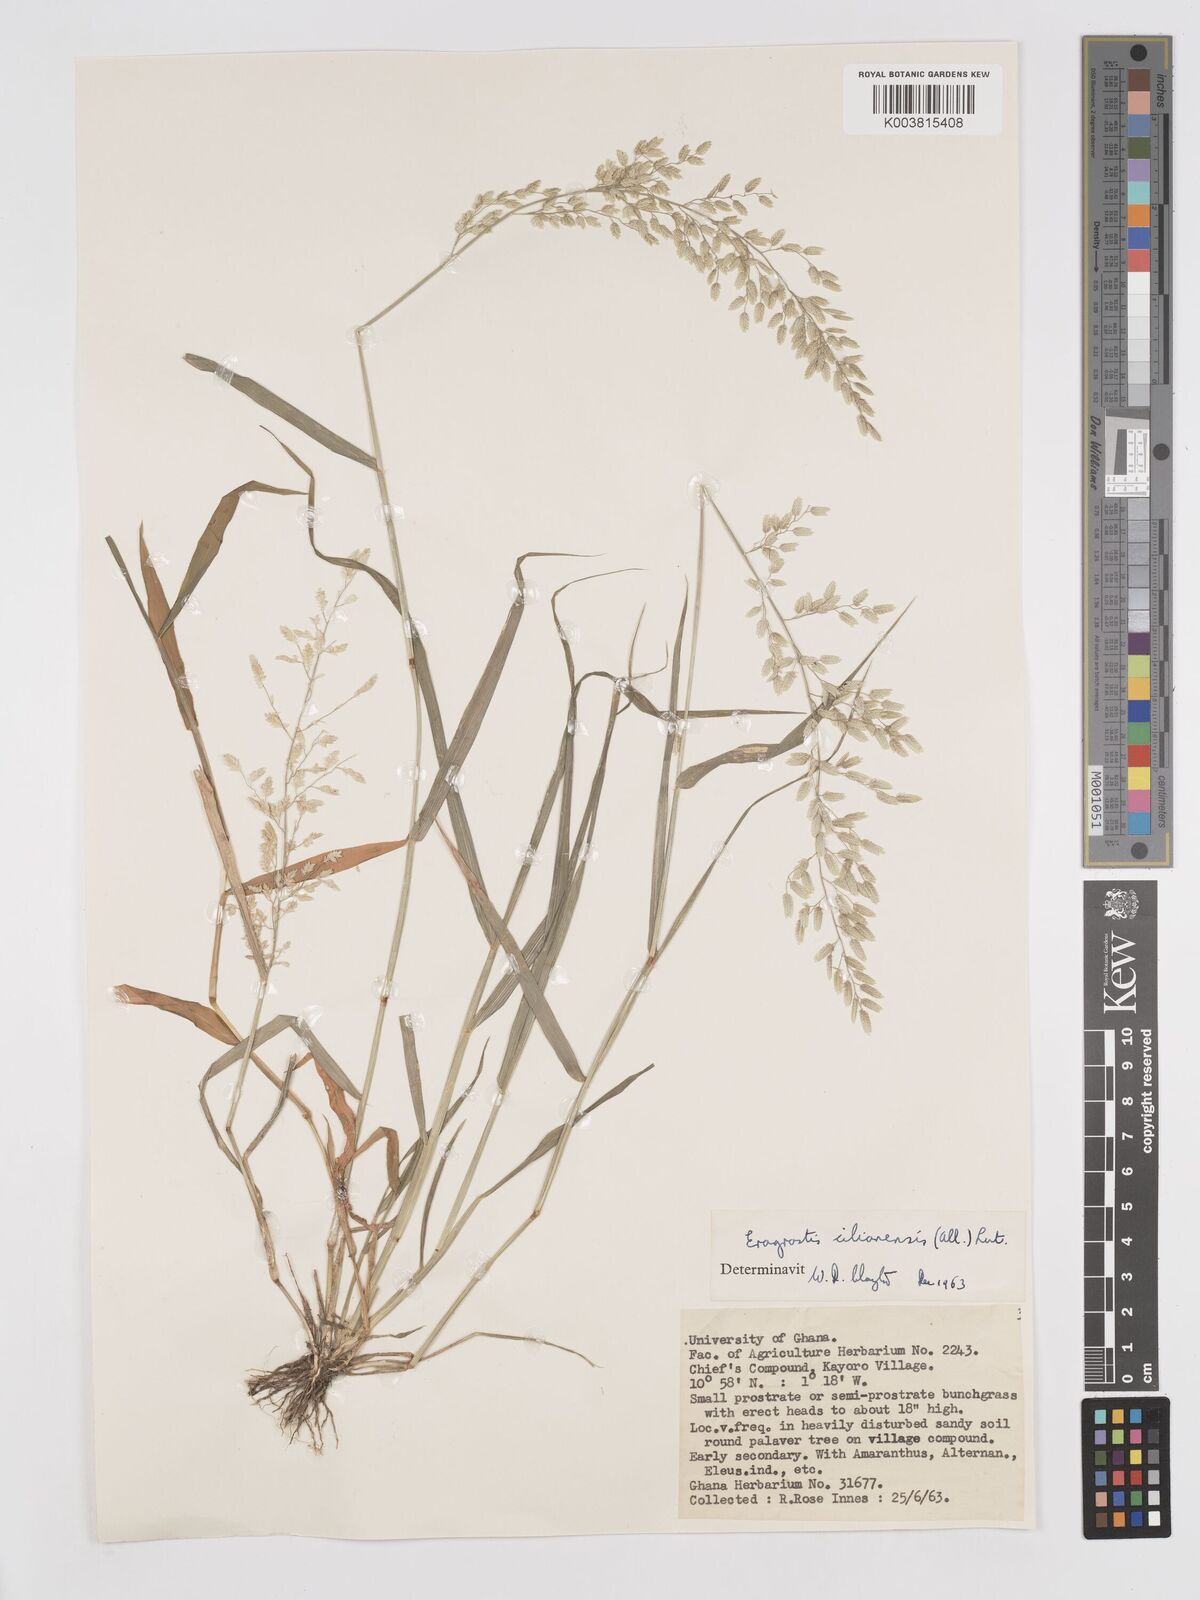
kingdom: Plantae
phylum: Tracheophyta
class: Liliopsida
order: Poales
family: Poaceae
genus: Eragrostis
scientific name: Eragrostis cilianensis
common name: Stinkgrass
